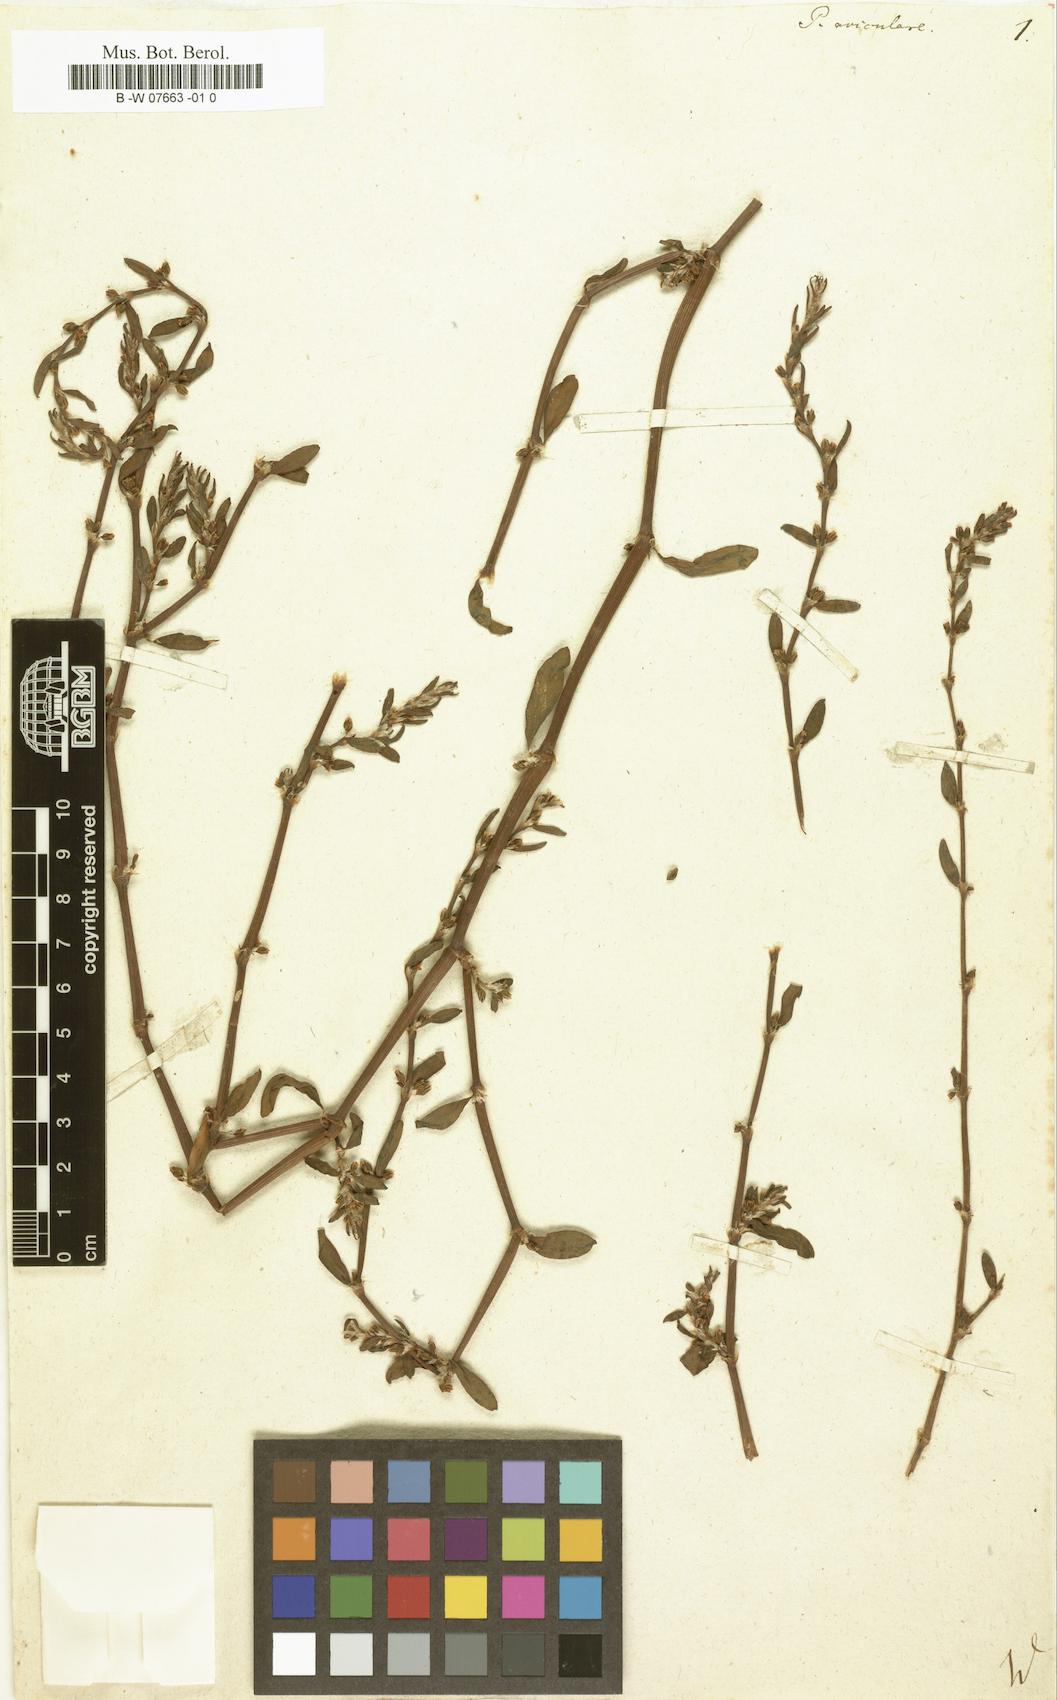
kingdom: Plantae
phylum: Tracheophyta
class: Magnoliopsida
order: Caryophyllales
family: Polygonaceae
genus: Polygonum
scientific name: Polygonum aviculare
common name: Prostrate knotweed
